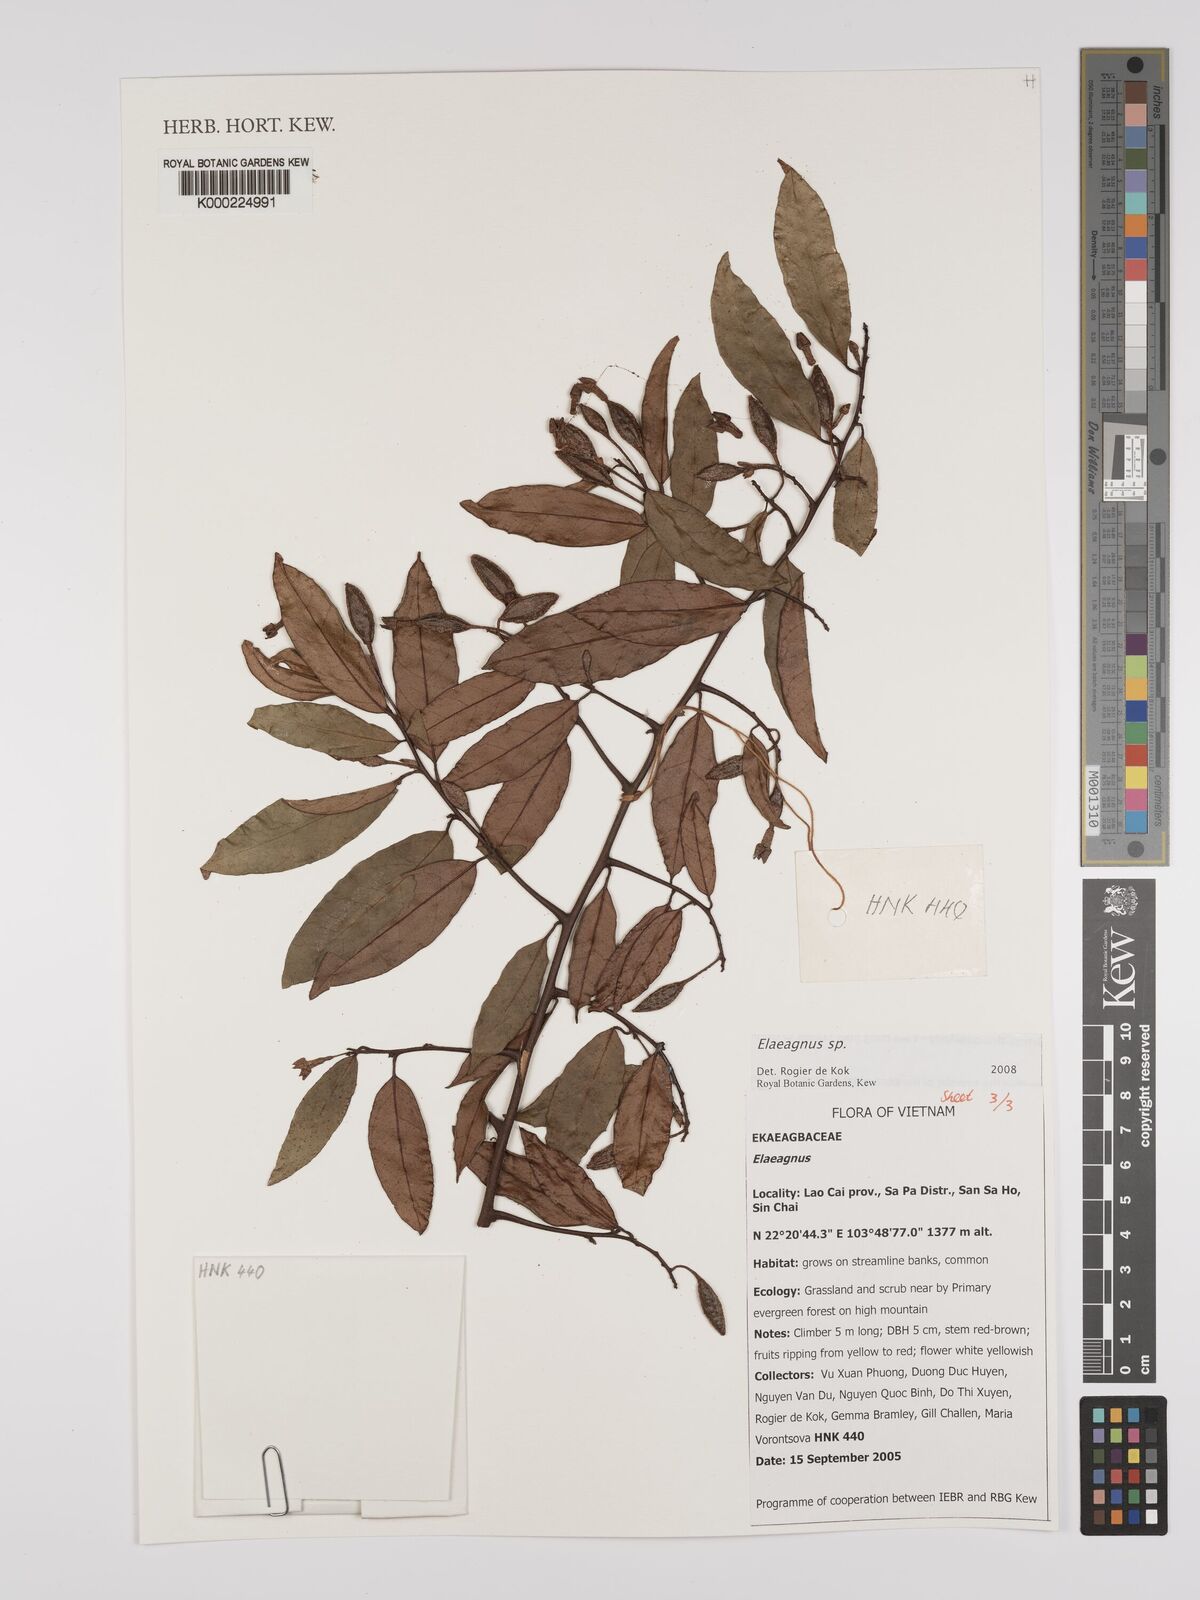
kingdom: Plantae
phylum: Tracheophyta
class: Magnoliopsida
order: Rosales
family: Elaeagnaceae
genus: Elaeagnus
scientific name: Elaeagnus
